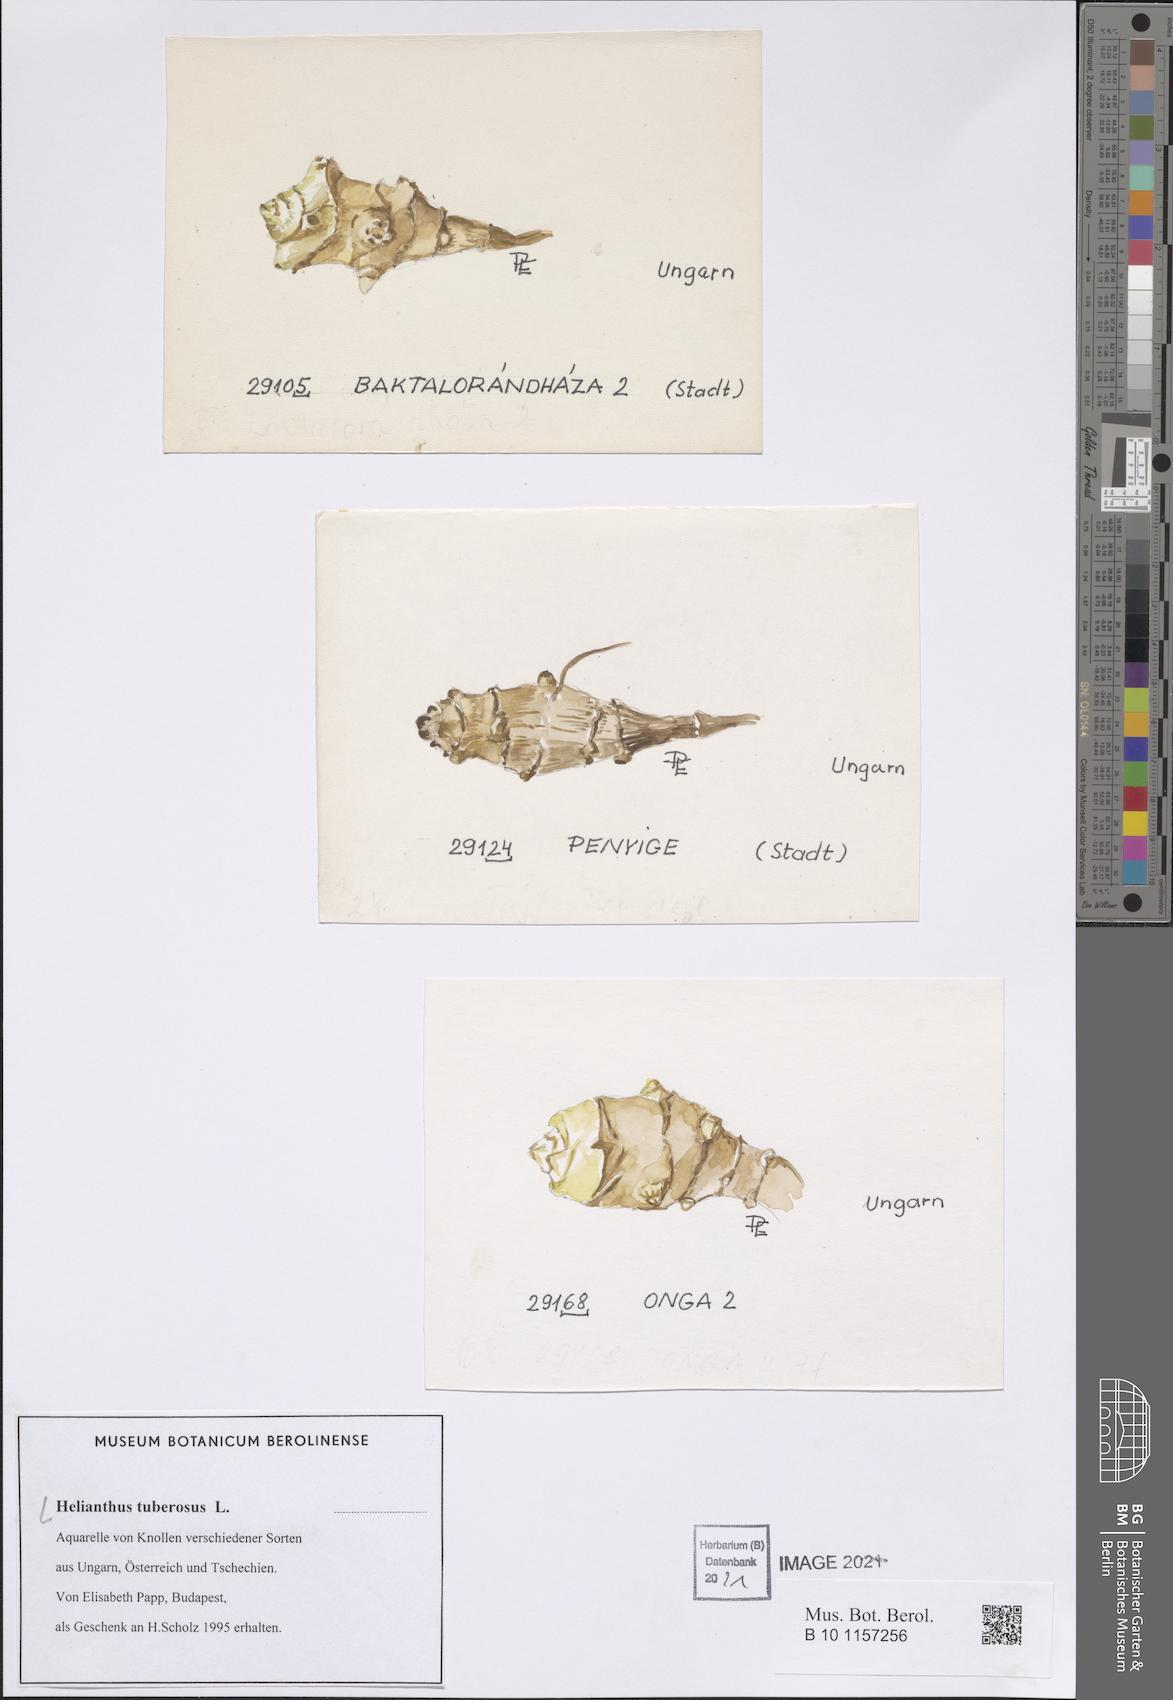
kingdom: Plantae
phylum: Tracheophyta
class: Magnoliopsida
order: Asterales
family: Asteraceae
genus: Helianthus
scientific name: Helianthus tuberosus
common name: Jerusalem artichoke
